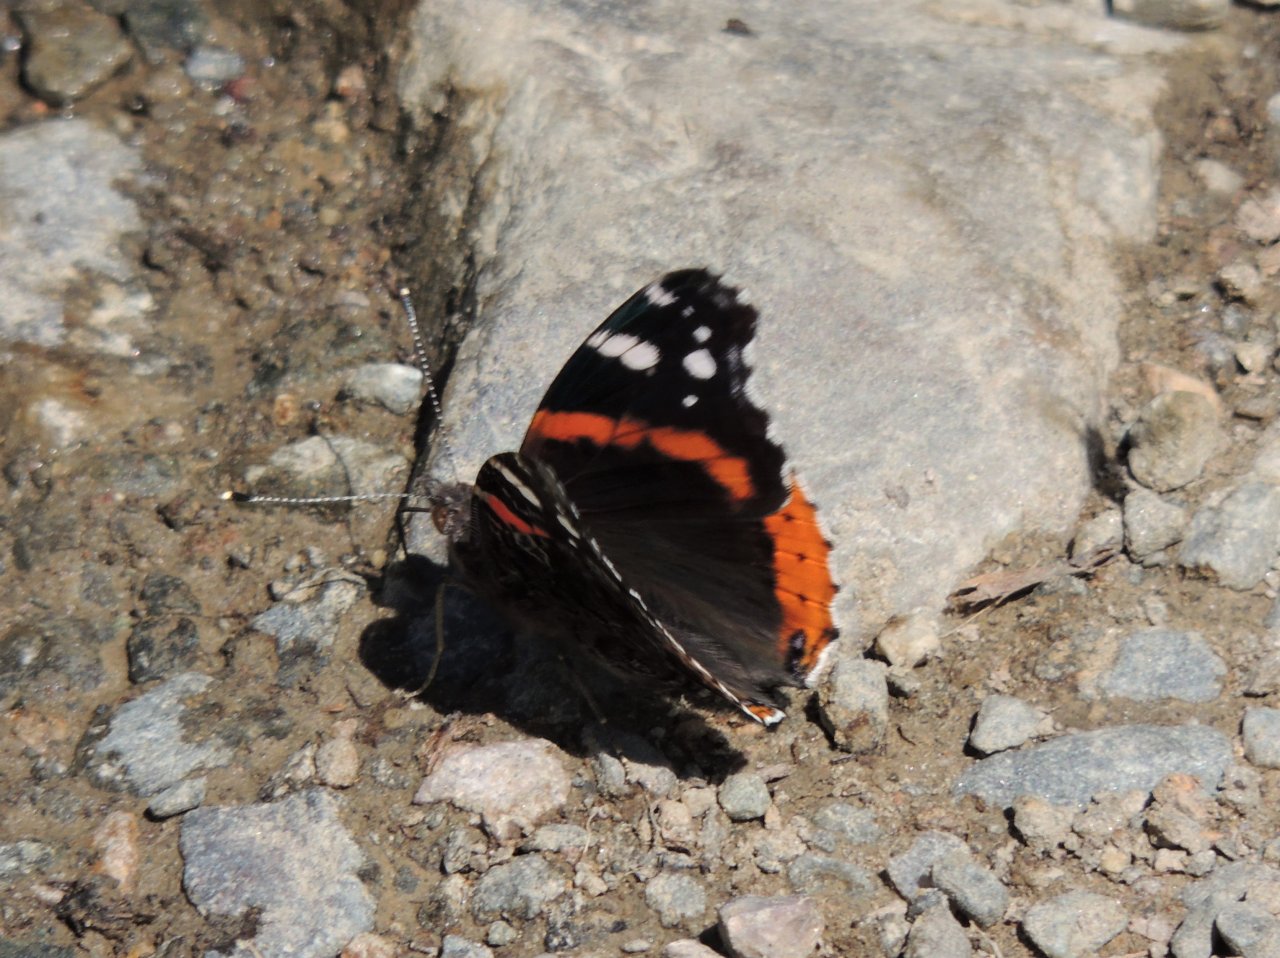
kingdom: Animalia
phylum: Arthropoda
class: Insecta
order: Lepidoptera
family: Nymphalidae
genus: Vanessa
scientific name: Vanessa atalanta
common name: Red Admiral
